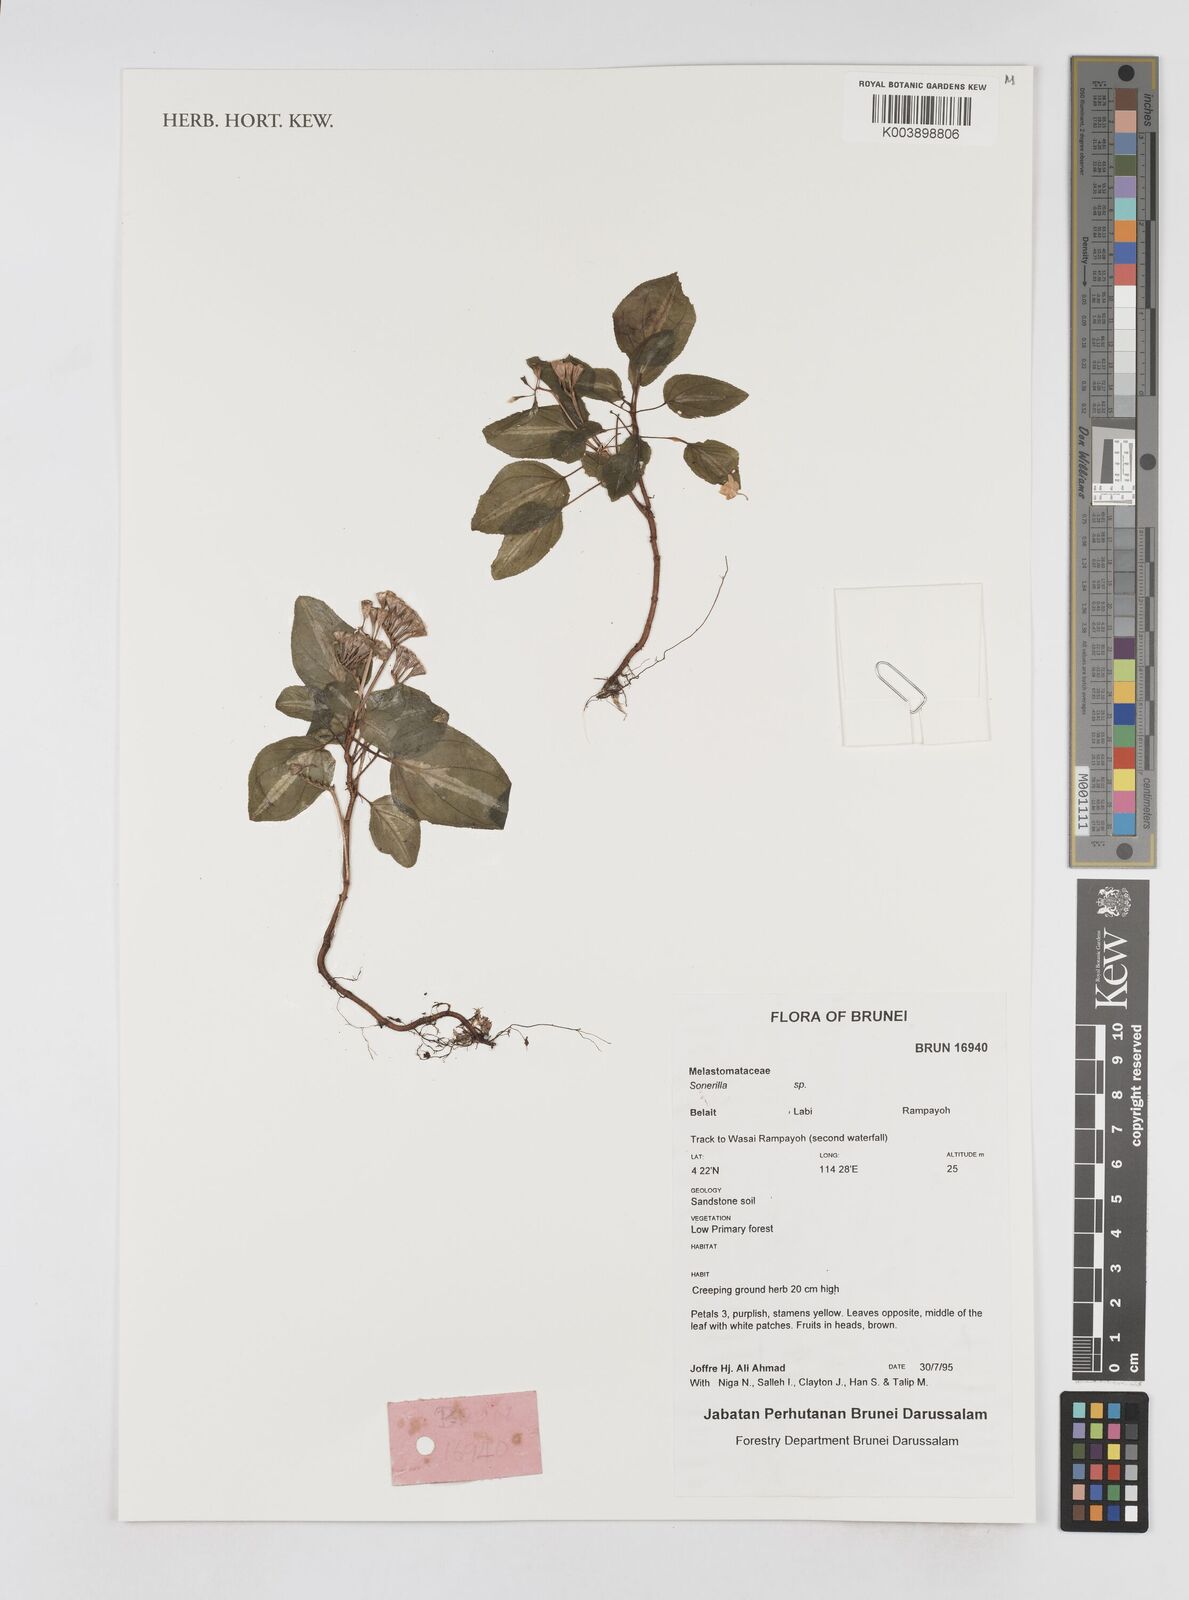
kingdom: Plantae
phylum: Tracheophyta
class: Magnoliopsida
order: Myrtales
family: Melastomataceae
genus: Sonerila
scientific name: Sonerila
